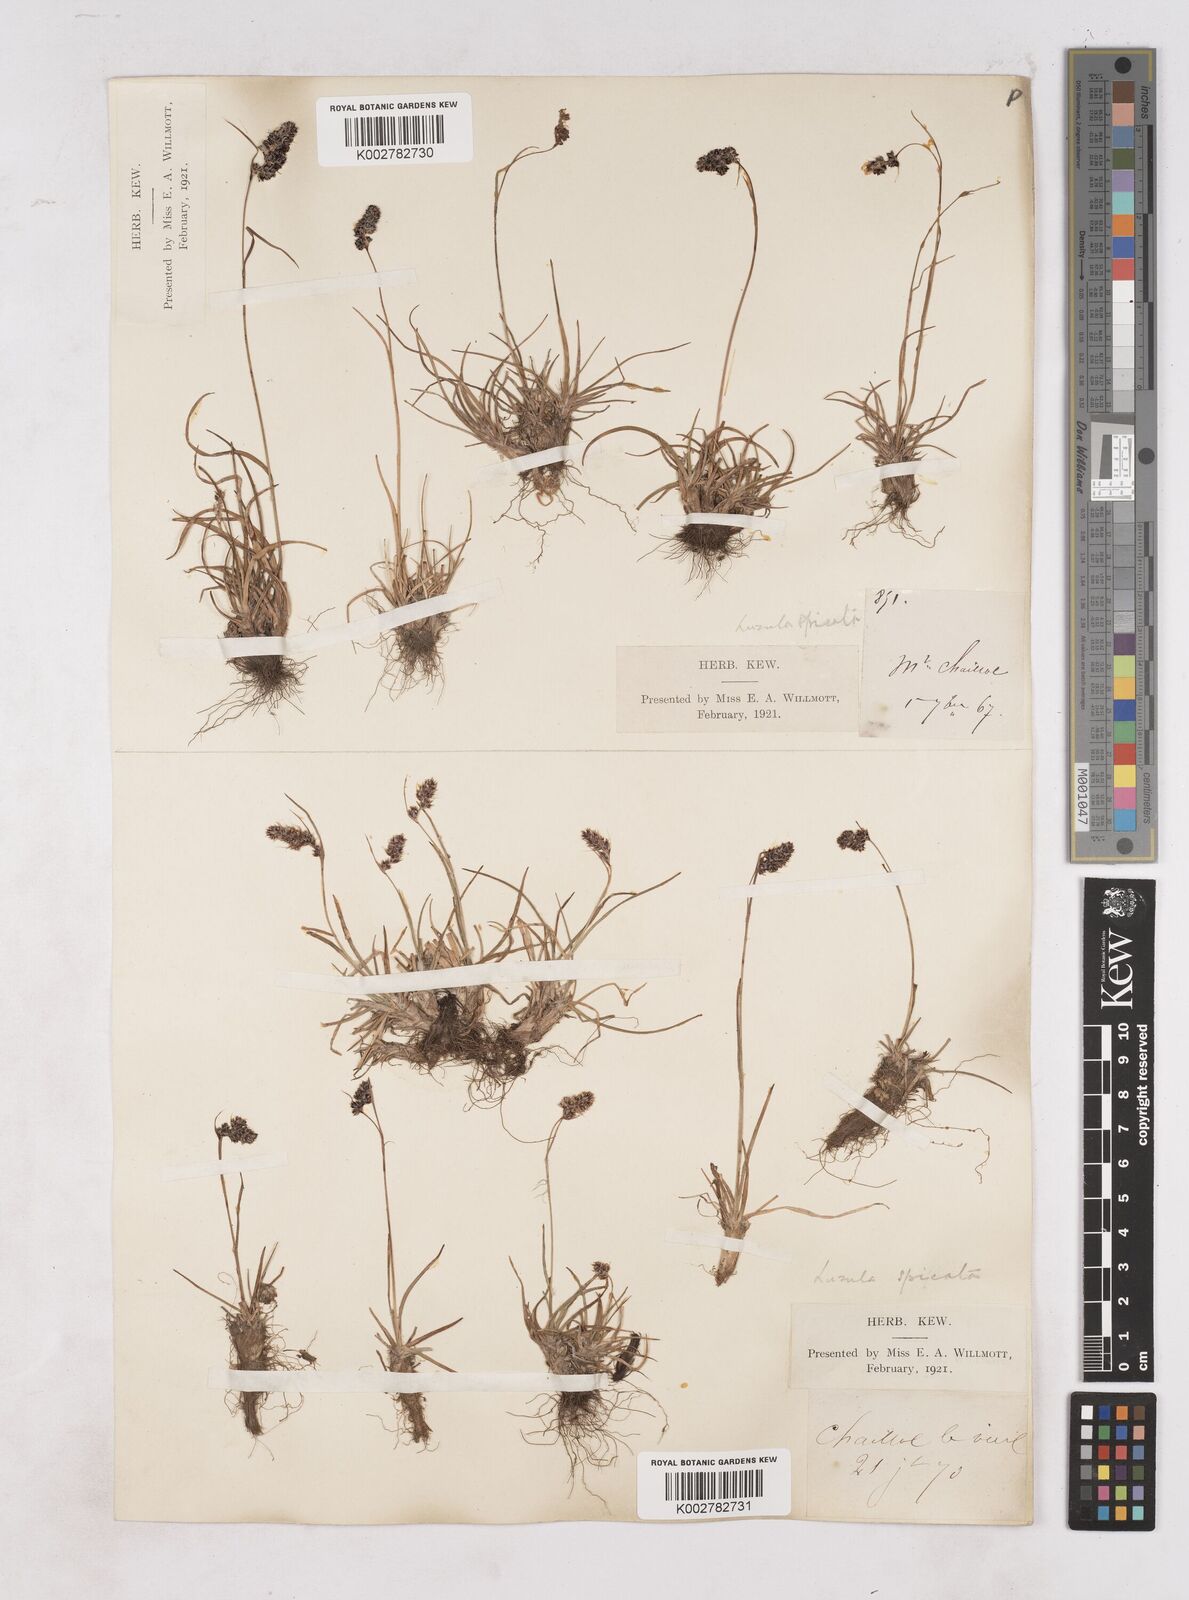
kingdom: Plantae
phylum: Tracheophyta
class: Liliopsida
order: Poales
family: Juncaceae
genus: Luzula
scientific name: Luzula spicata
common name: Spiked wood-rush
